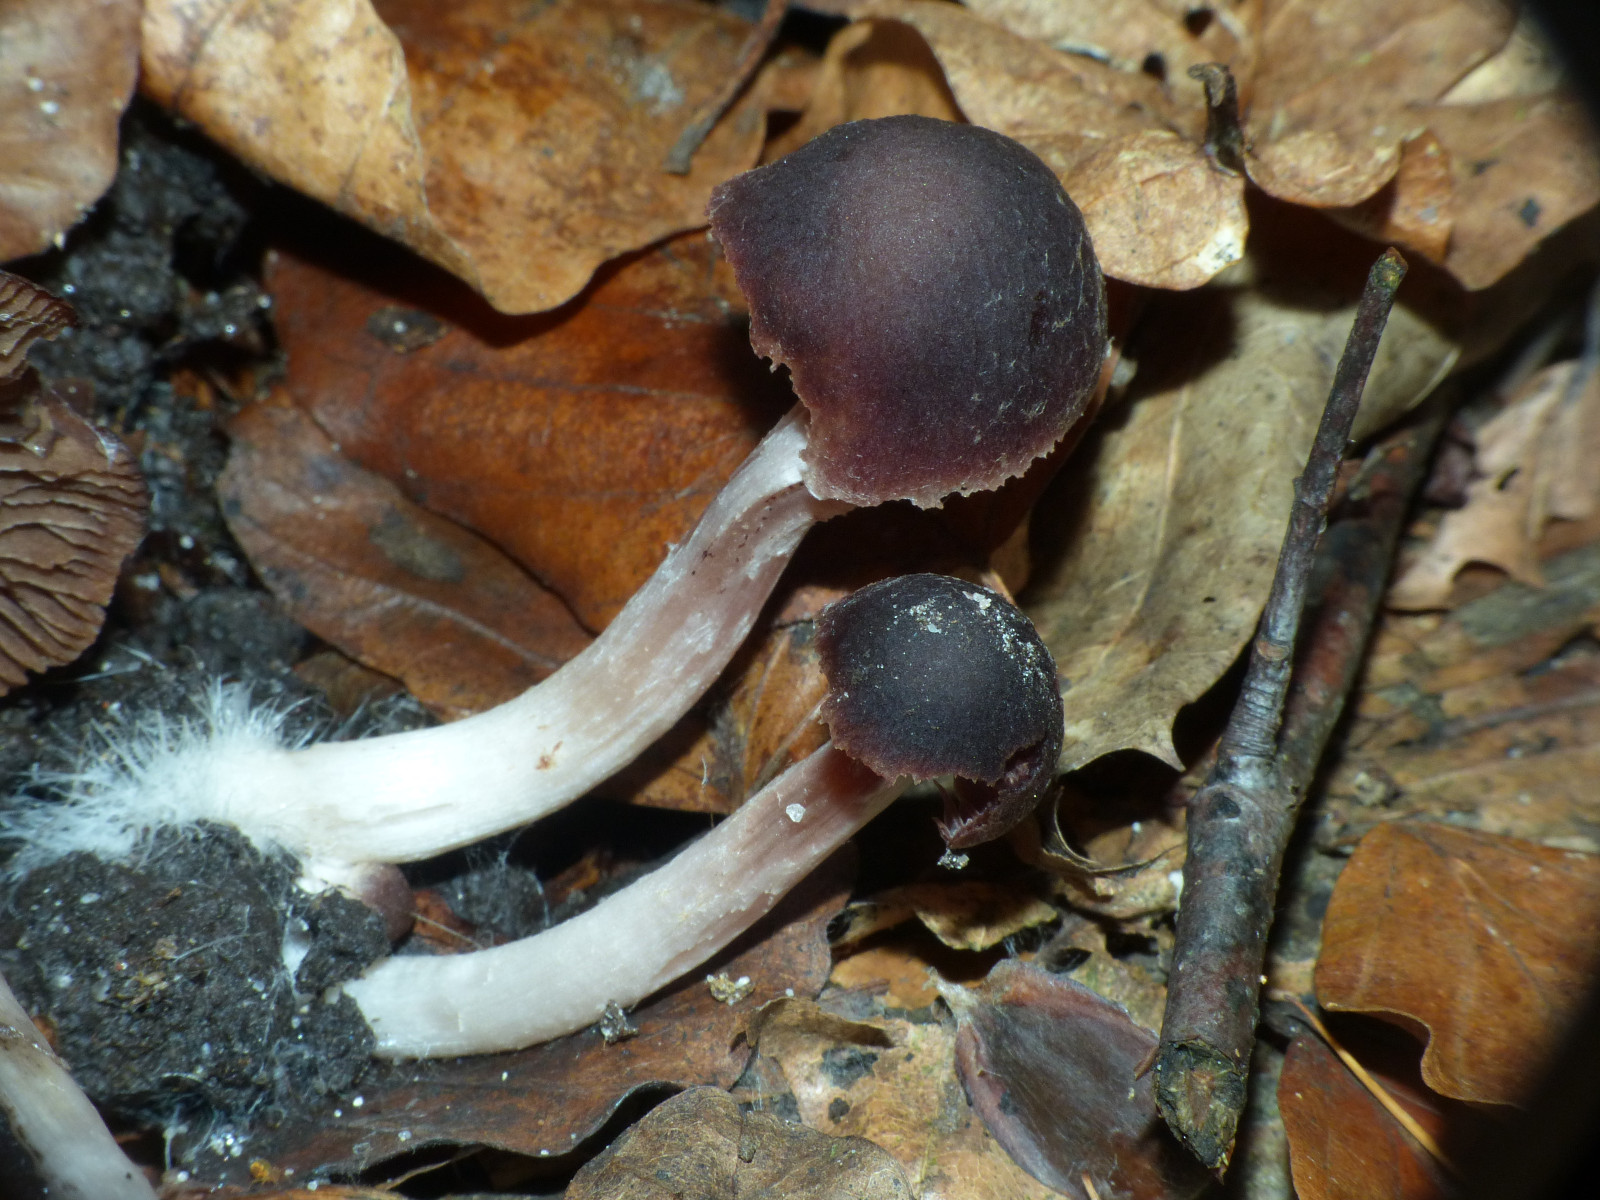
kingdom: Fungi
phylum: Basidiomycota
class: Agaricomycetes
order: Agaricales
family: Psathyrellaceae
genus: Psathyrella
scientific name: Psathyrella bipellis
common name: vinrød mørkhat
